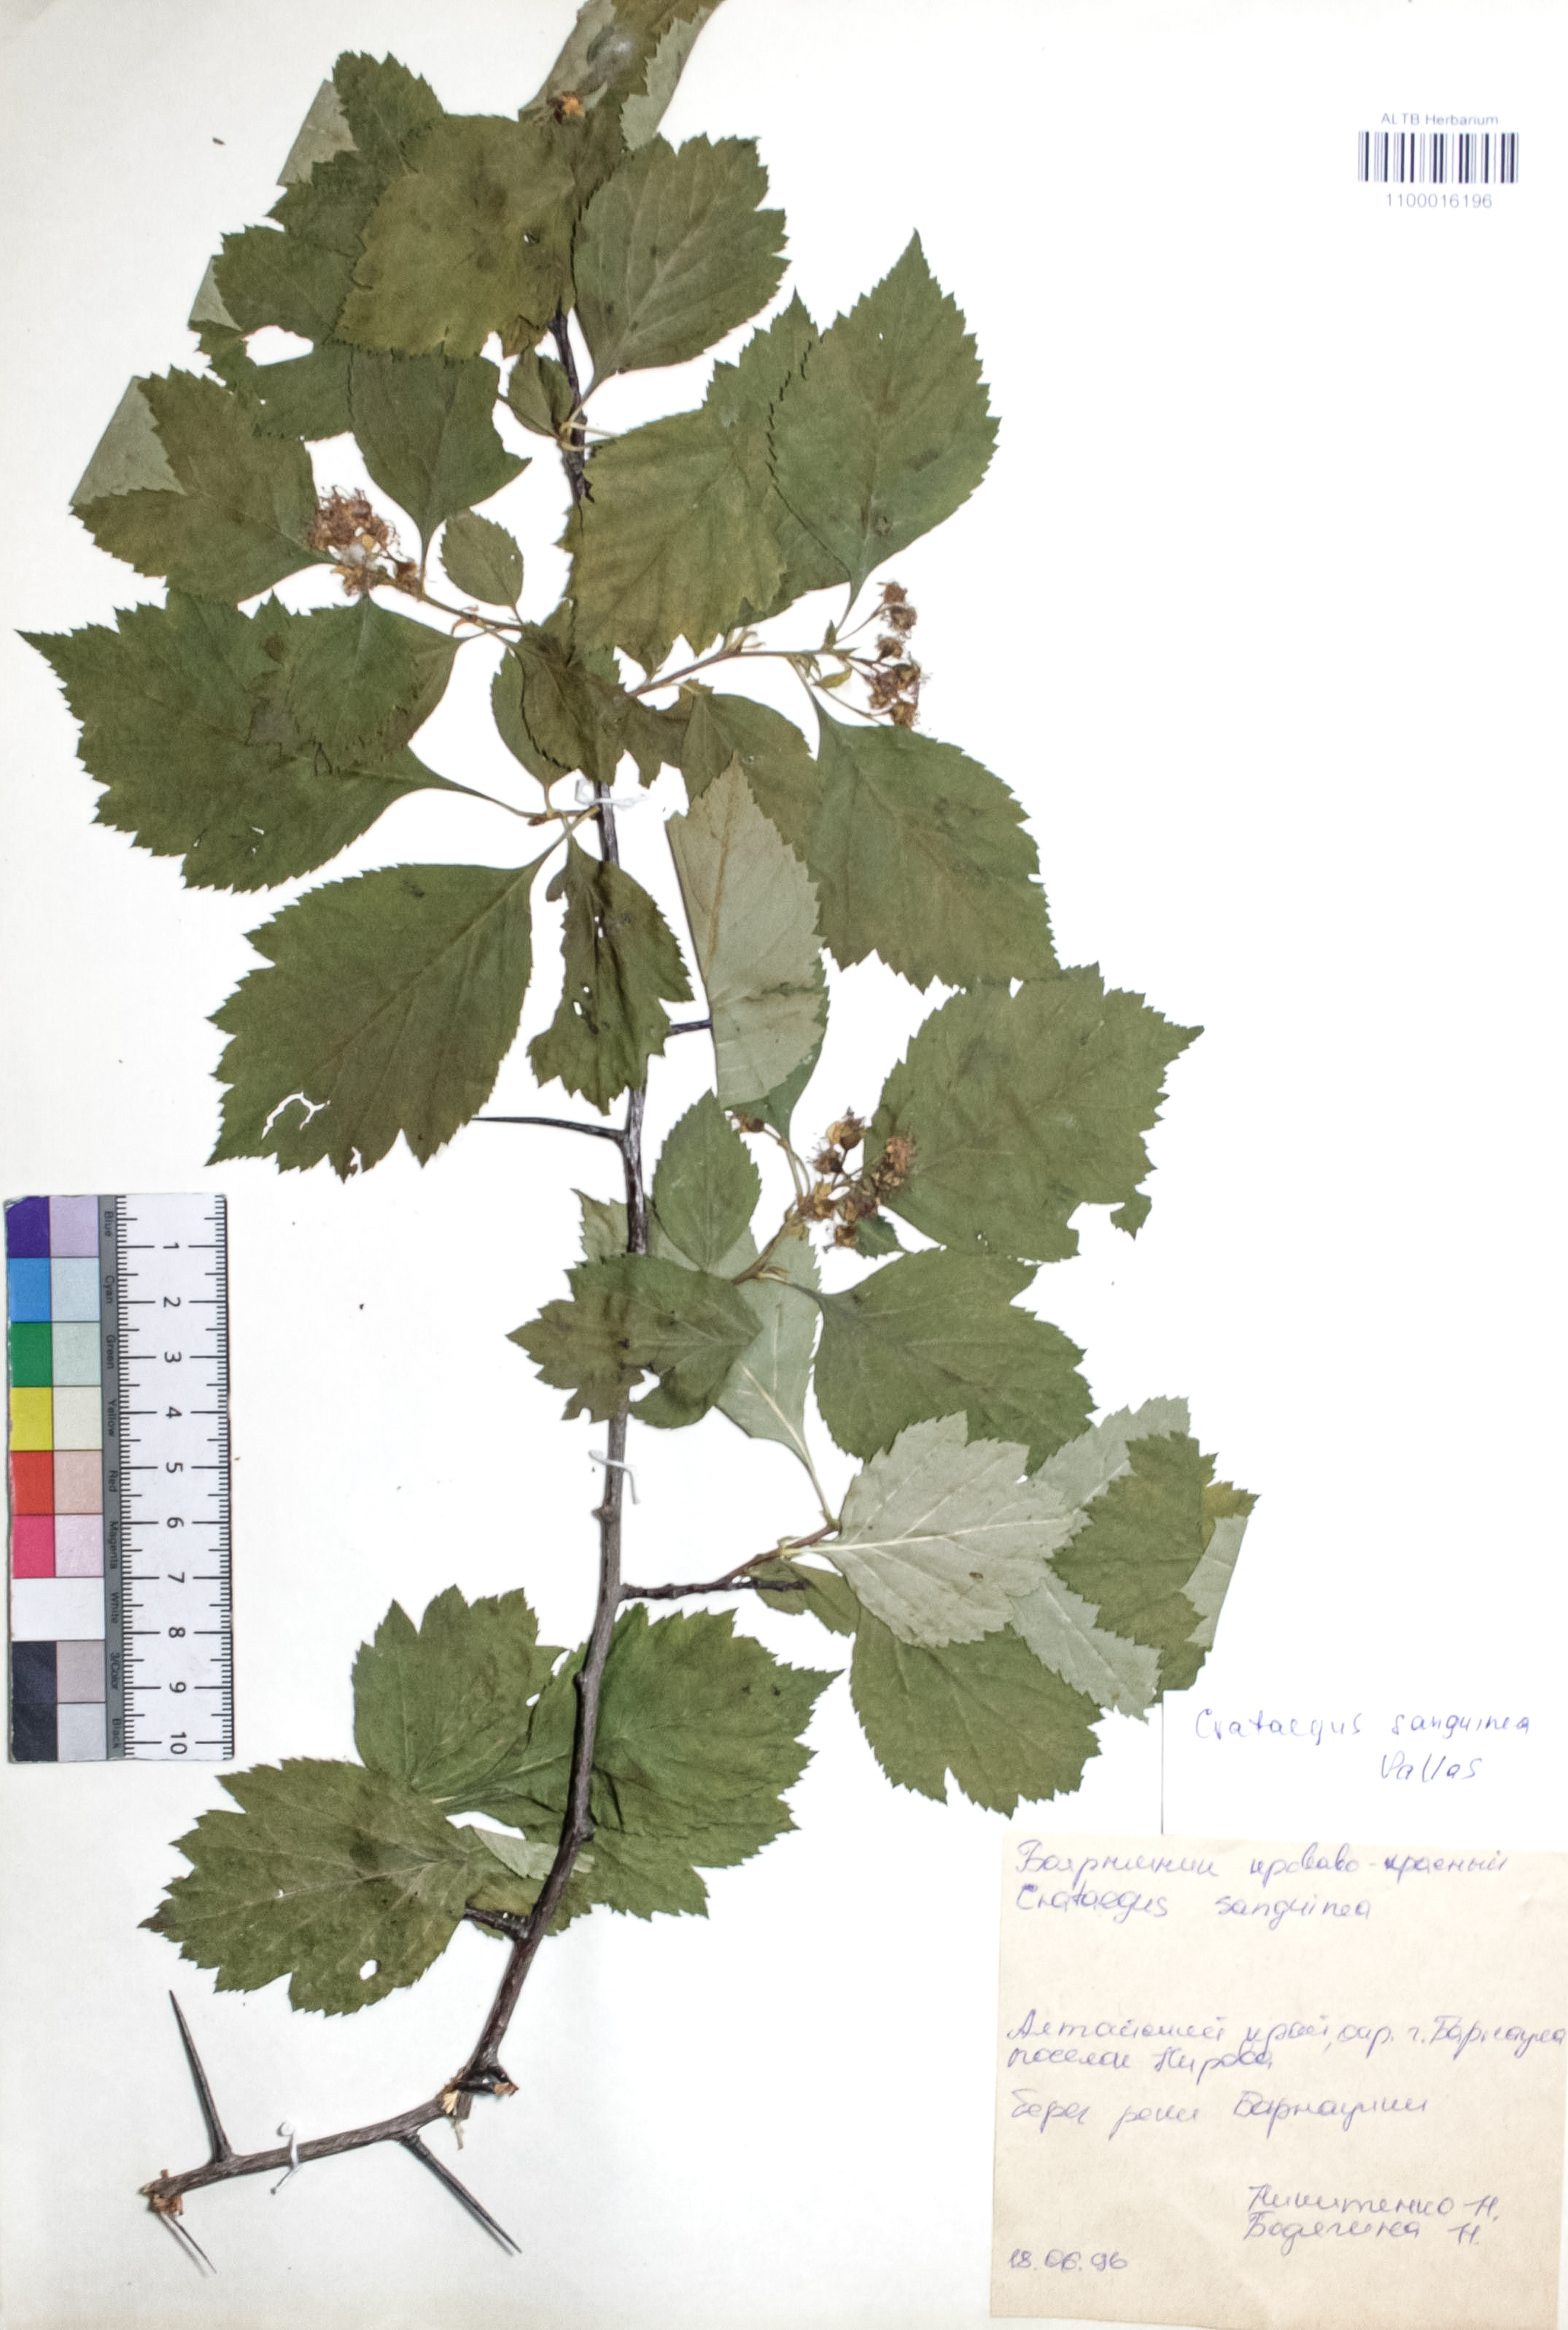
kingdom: Plantae
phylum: Tracheophyta
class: Magnoliopsida
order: Rosales
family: Rosaceae
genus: Crataegus
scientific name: Crataegus sanguinea
